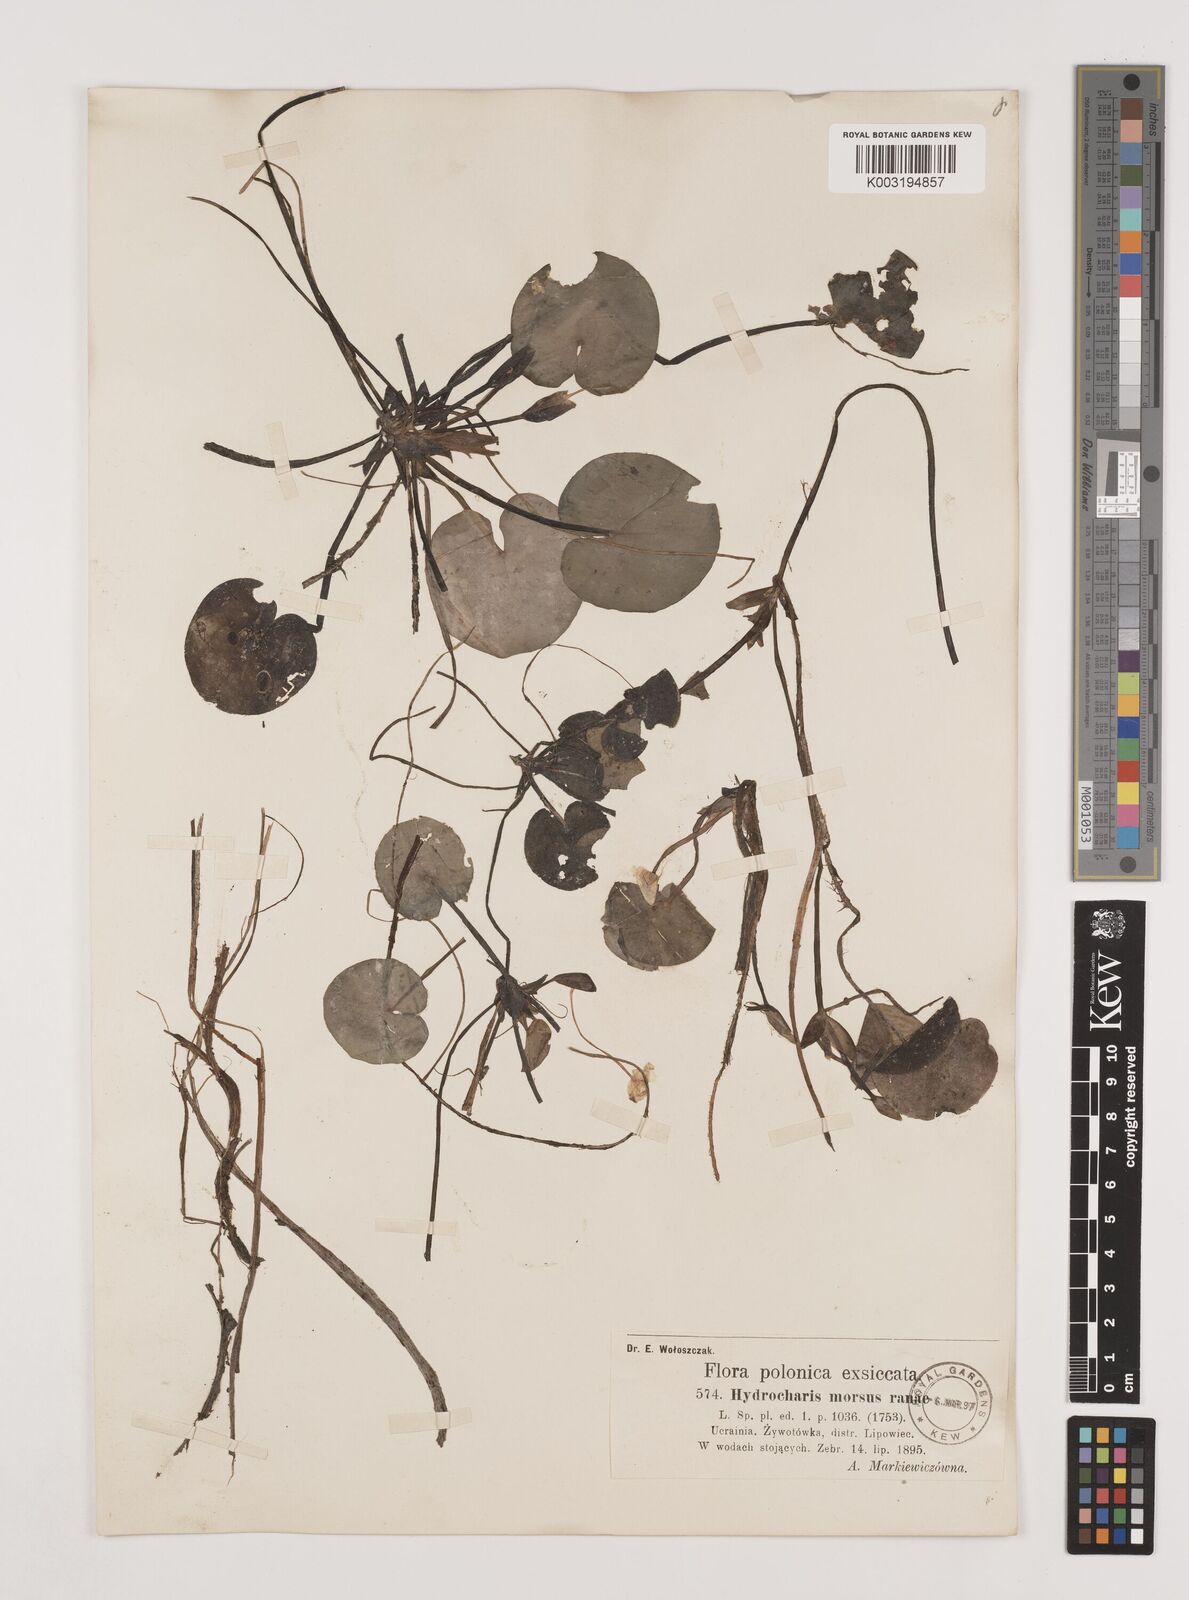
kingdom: Plantae
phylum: Tracheophyta
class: Liliopsida
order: Alismatales
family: Hydrocharitaceae
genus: Hydrocharis
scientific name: Hydrocharis morsus-ranae
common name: Frogbit
